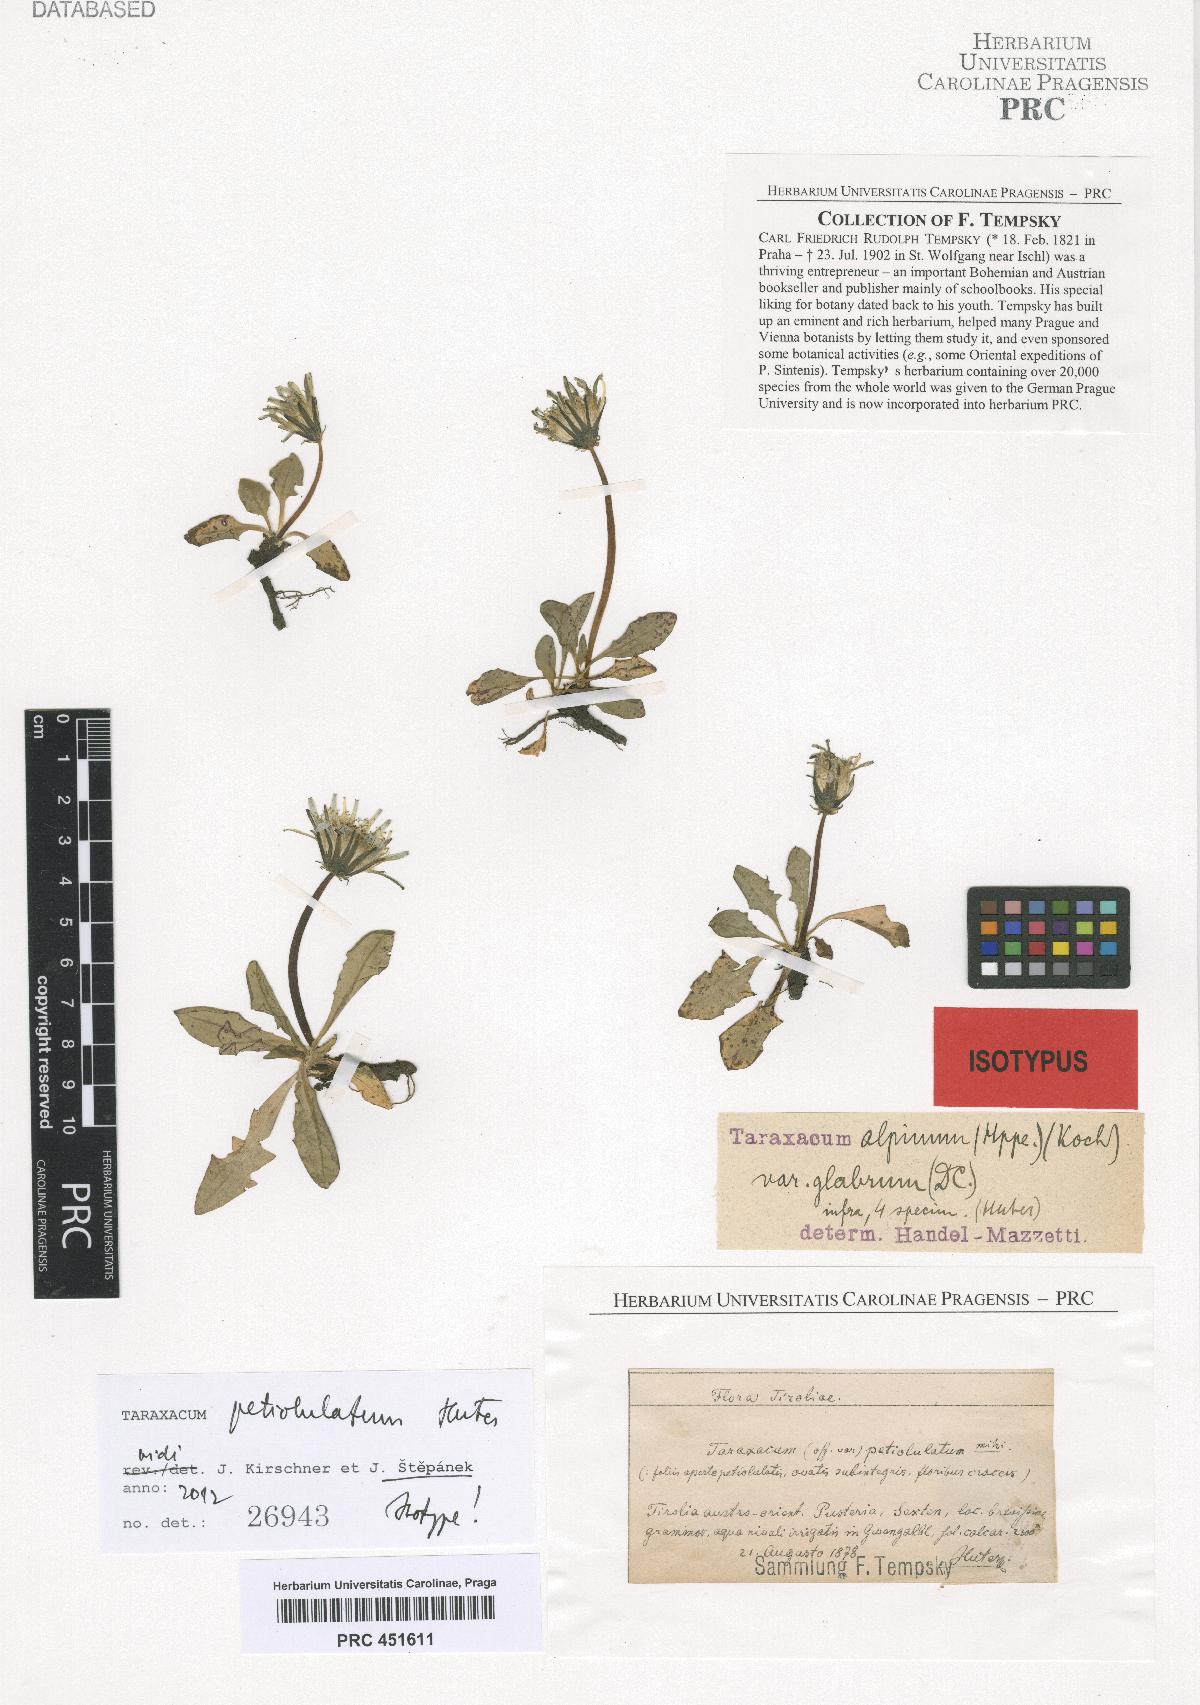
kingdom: Plantae
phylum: Tracheophyta
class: Magnoliopsida
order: Asterales
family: Asteraceae
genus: Taraxacum
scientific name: Taraxacum petiolulatum
